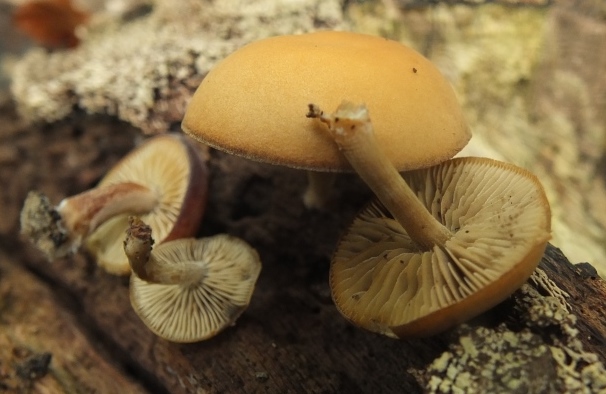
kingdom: Fungi
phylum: Basidiomycota
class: Agaricomycetes
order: Agaricales
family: Crepidotaceae
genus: Simocybe
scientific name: Simocybe sumptuosa
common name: stor skyggehat
